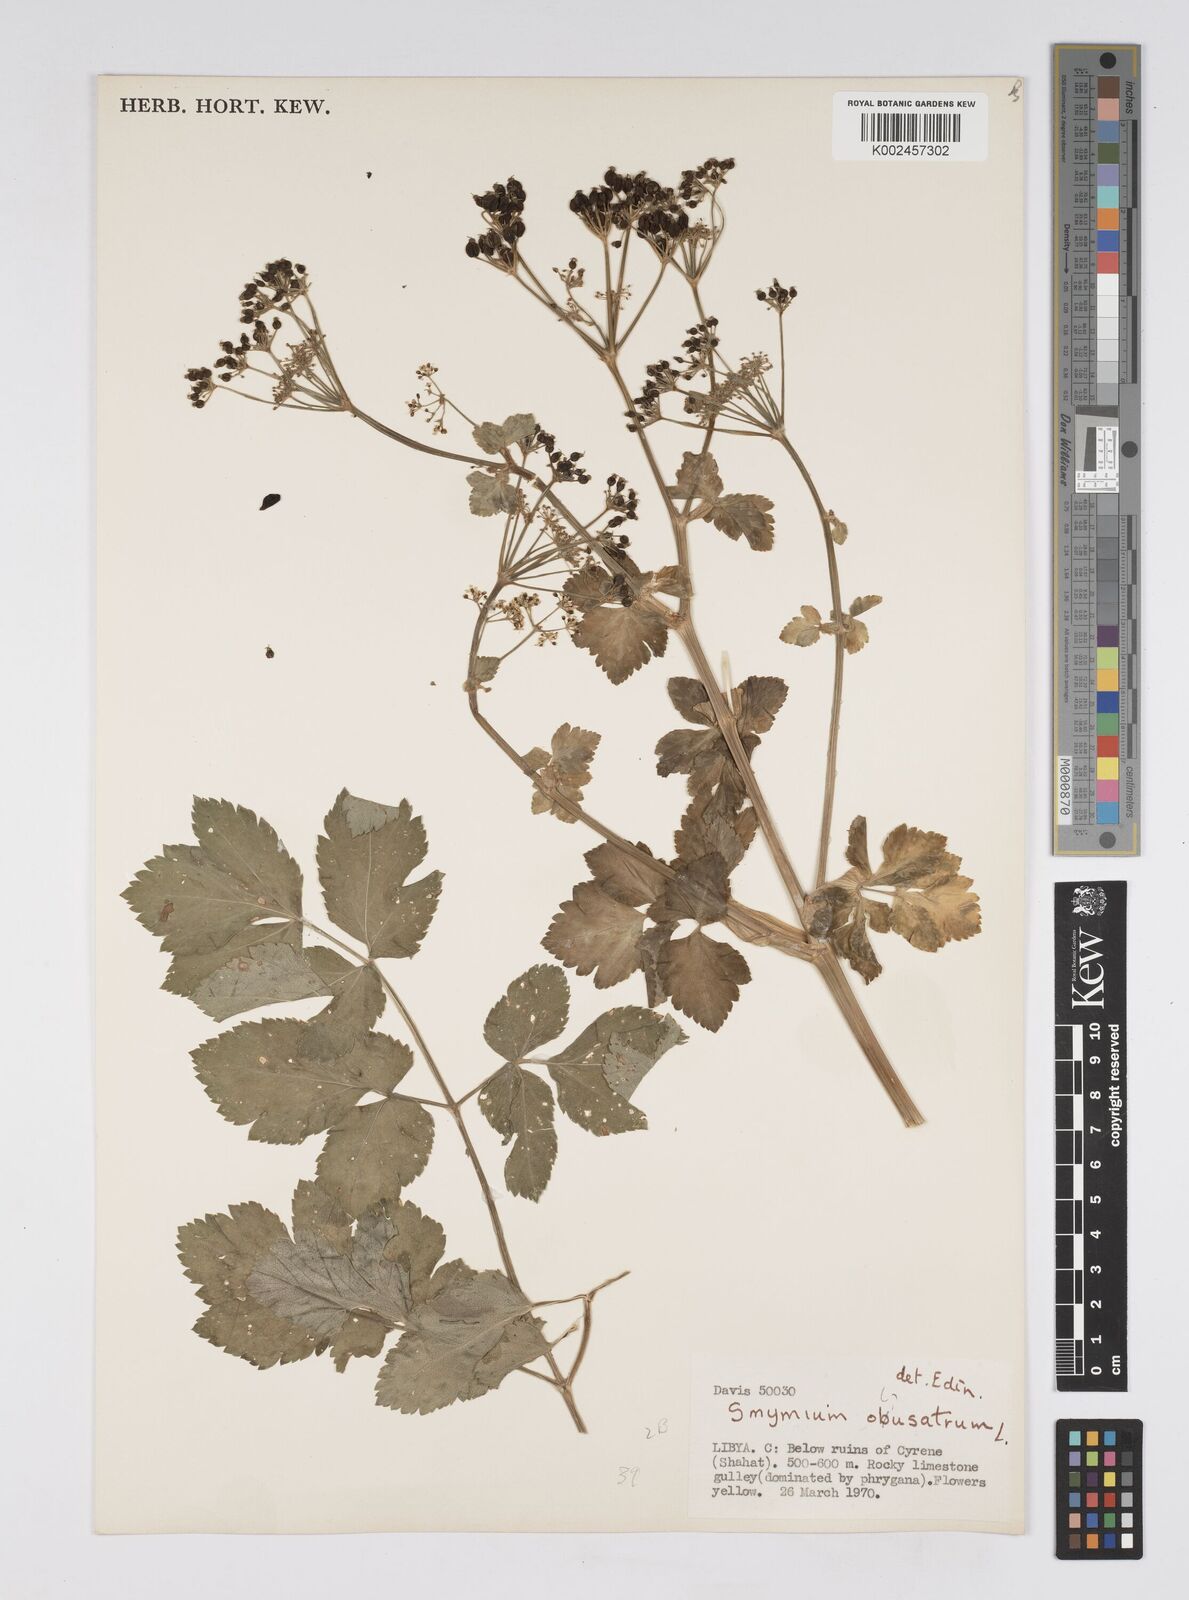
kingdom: Plantae
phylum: Tracheophyta
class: Magnoliopsida
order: Apiales
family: Apiaceae
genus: Smyrnium
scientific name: Smyrnium olusatrum
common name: Alexanders
